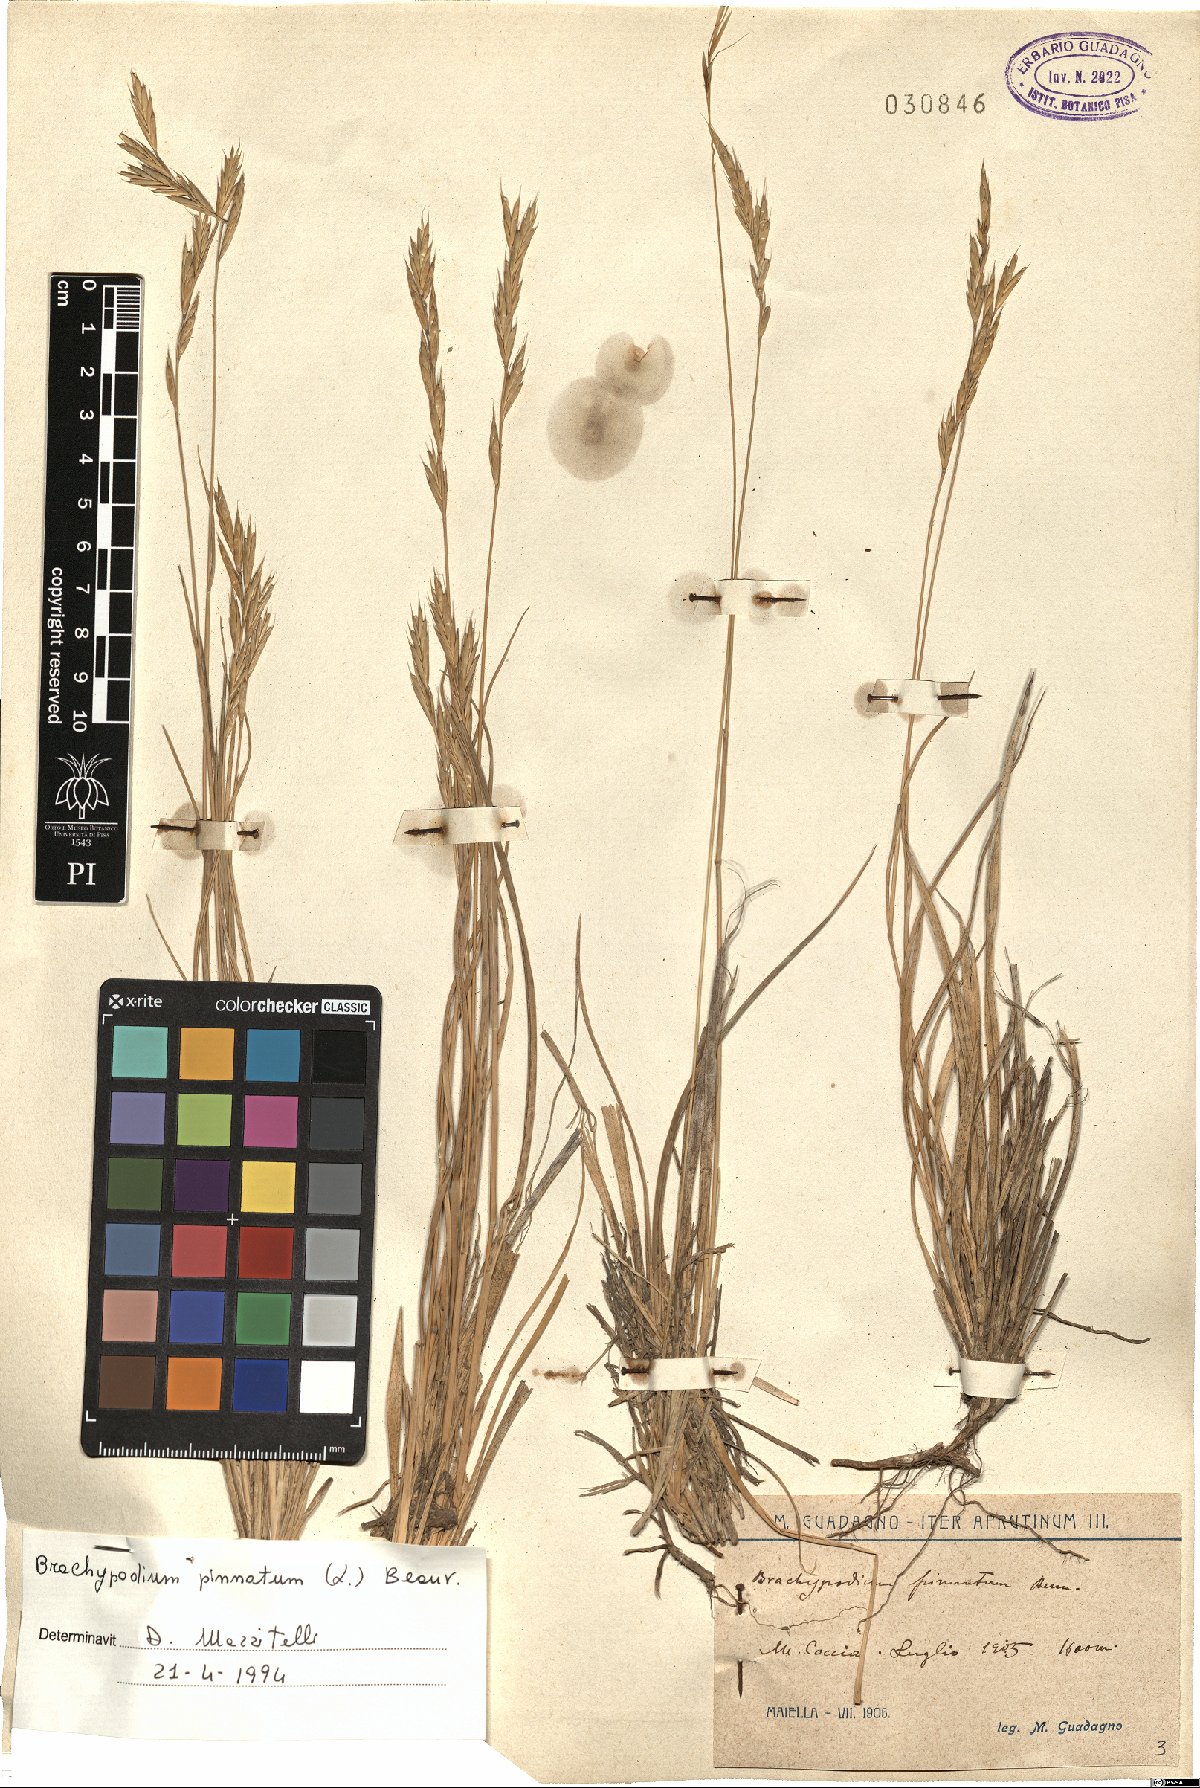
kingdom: Plantae
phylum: Tracheophyta
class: Liliopsida
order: Poales
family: Poaceae
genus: Brachypodium
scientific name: Brachypodium pinnatum
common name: Tor grass
